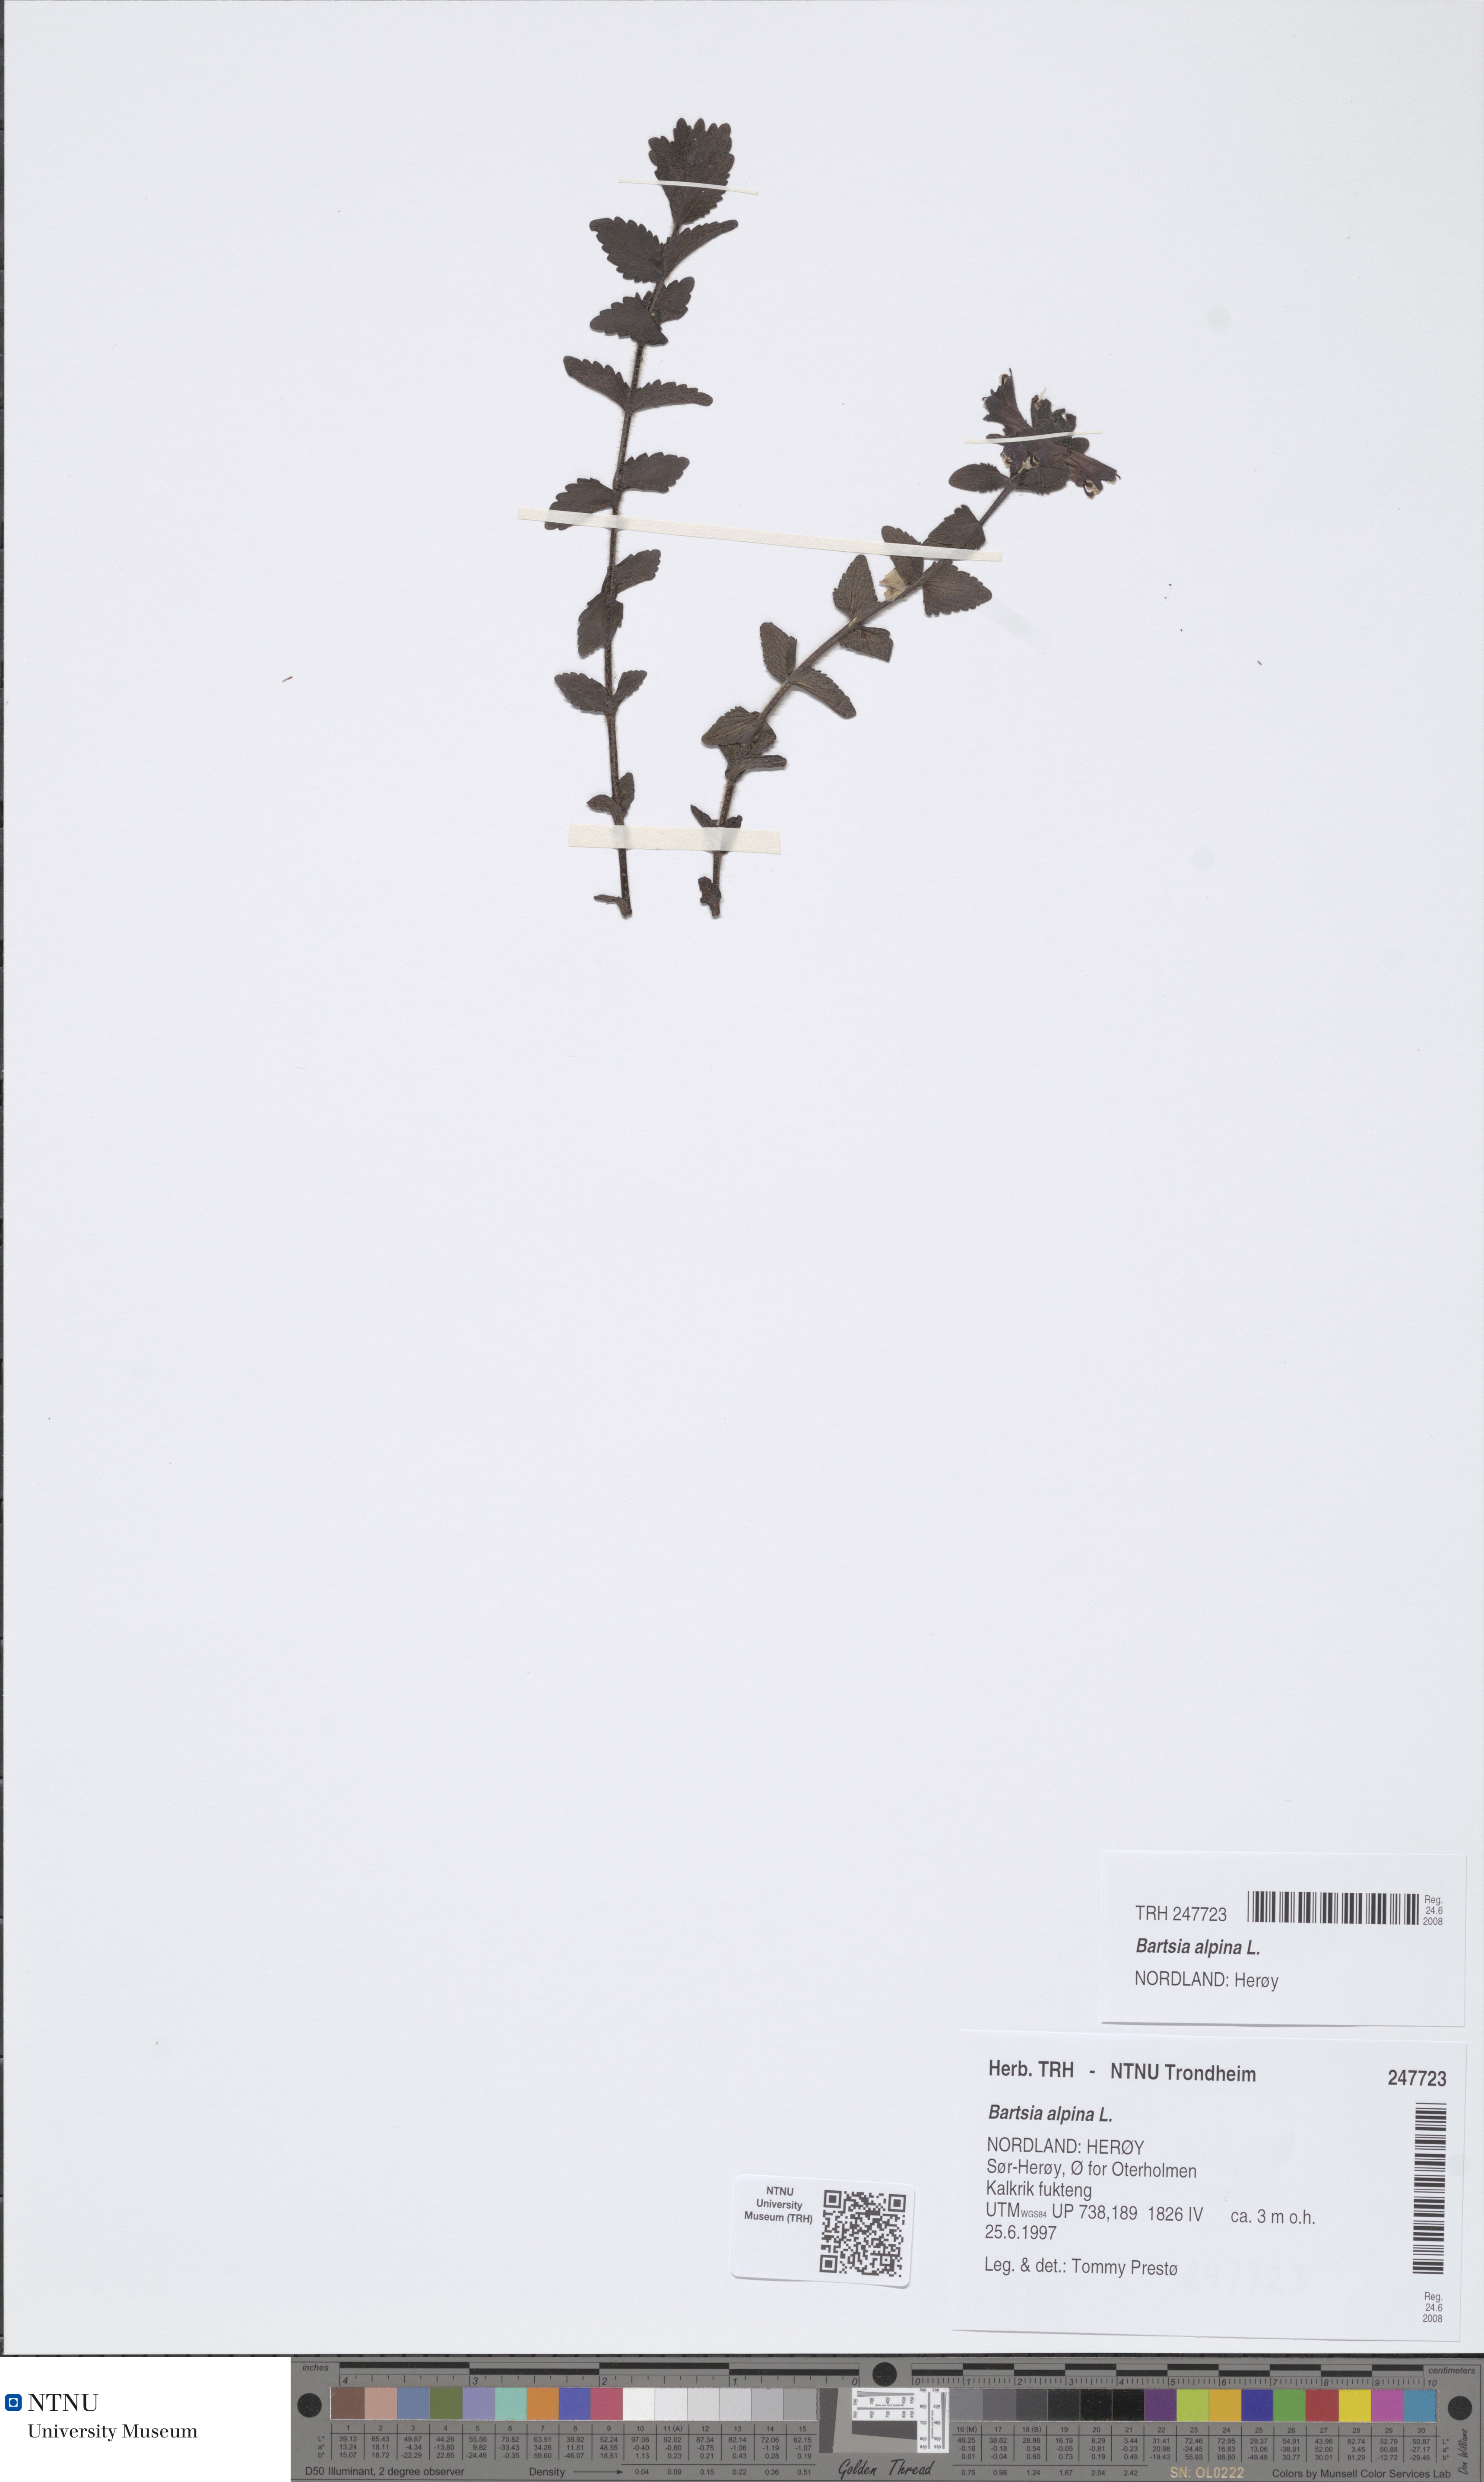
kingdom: Plantae
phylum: Tracheophyta
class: Magnoliopsida
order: Lamiales
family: Orobanchaceae
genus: Bartsia
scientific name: Bartsia alpina
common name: Alpine bartsia
